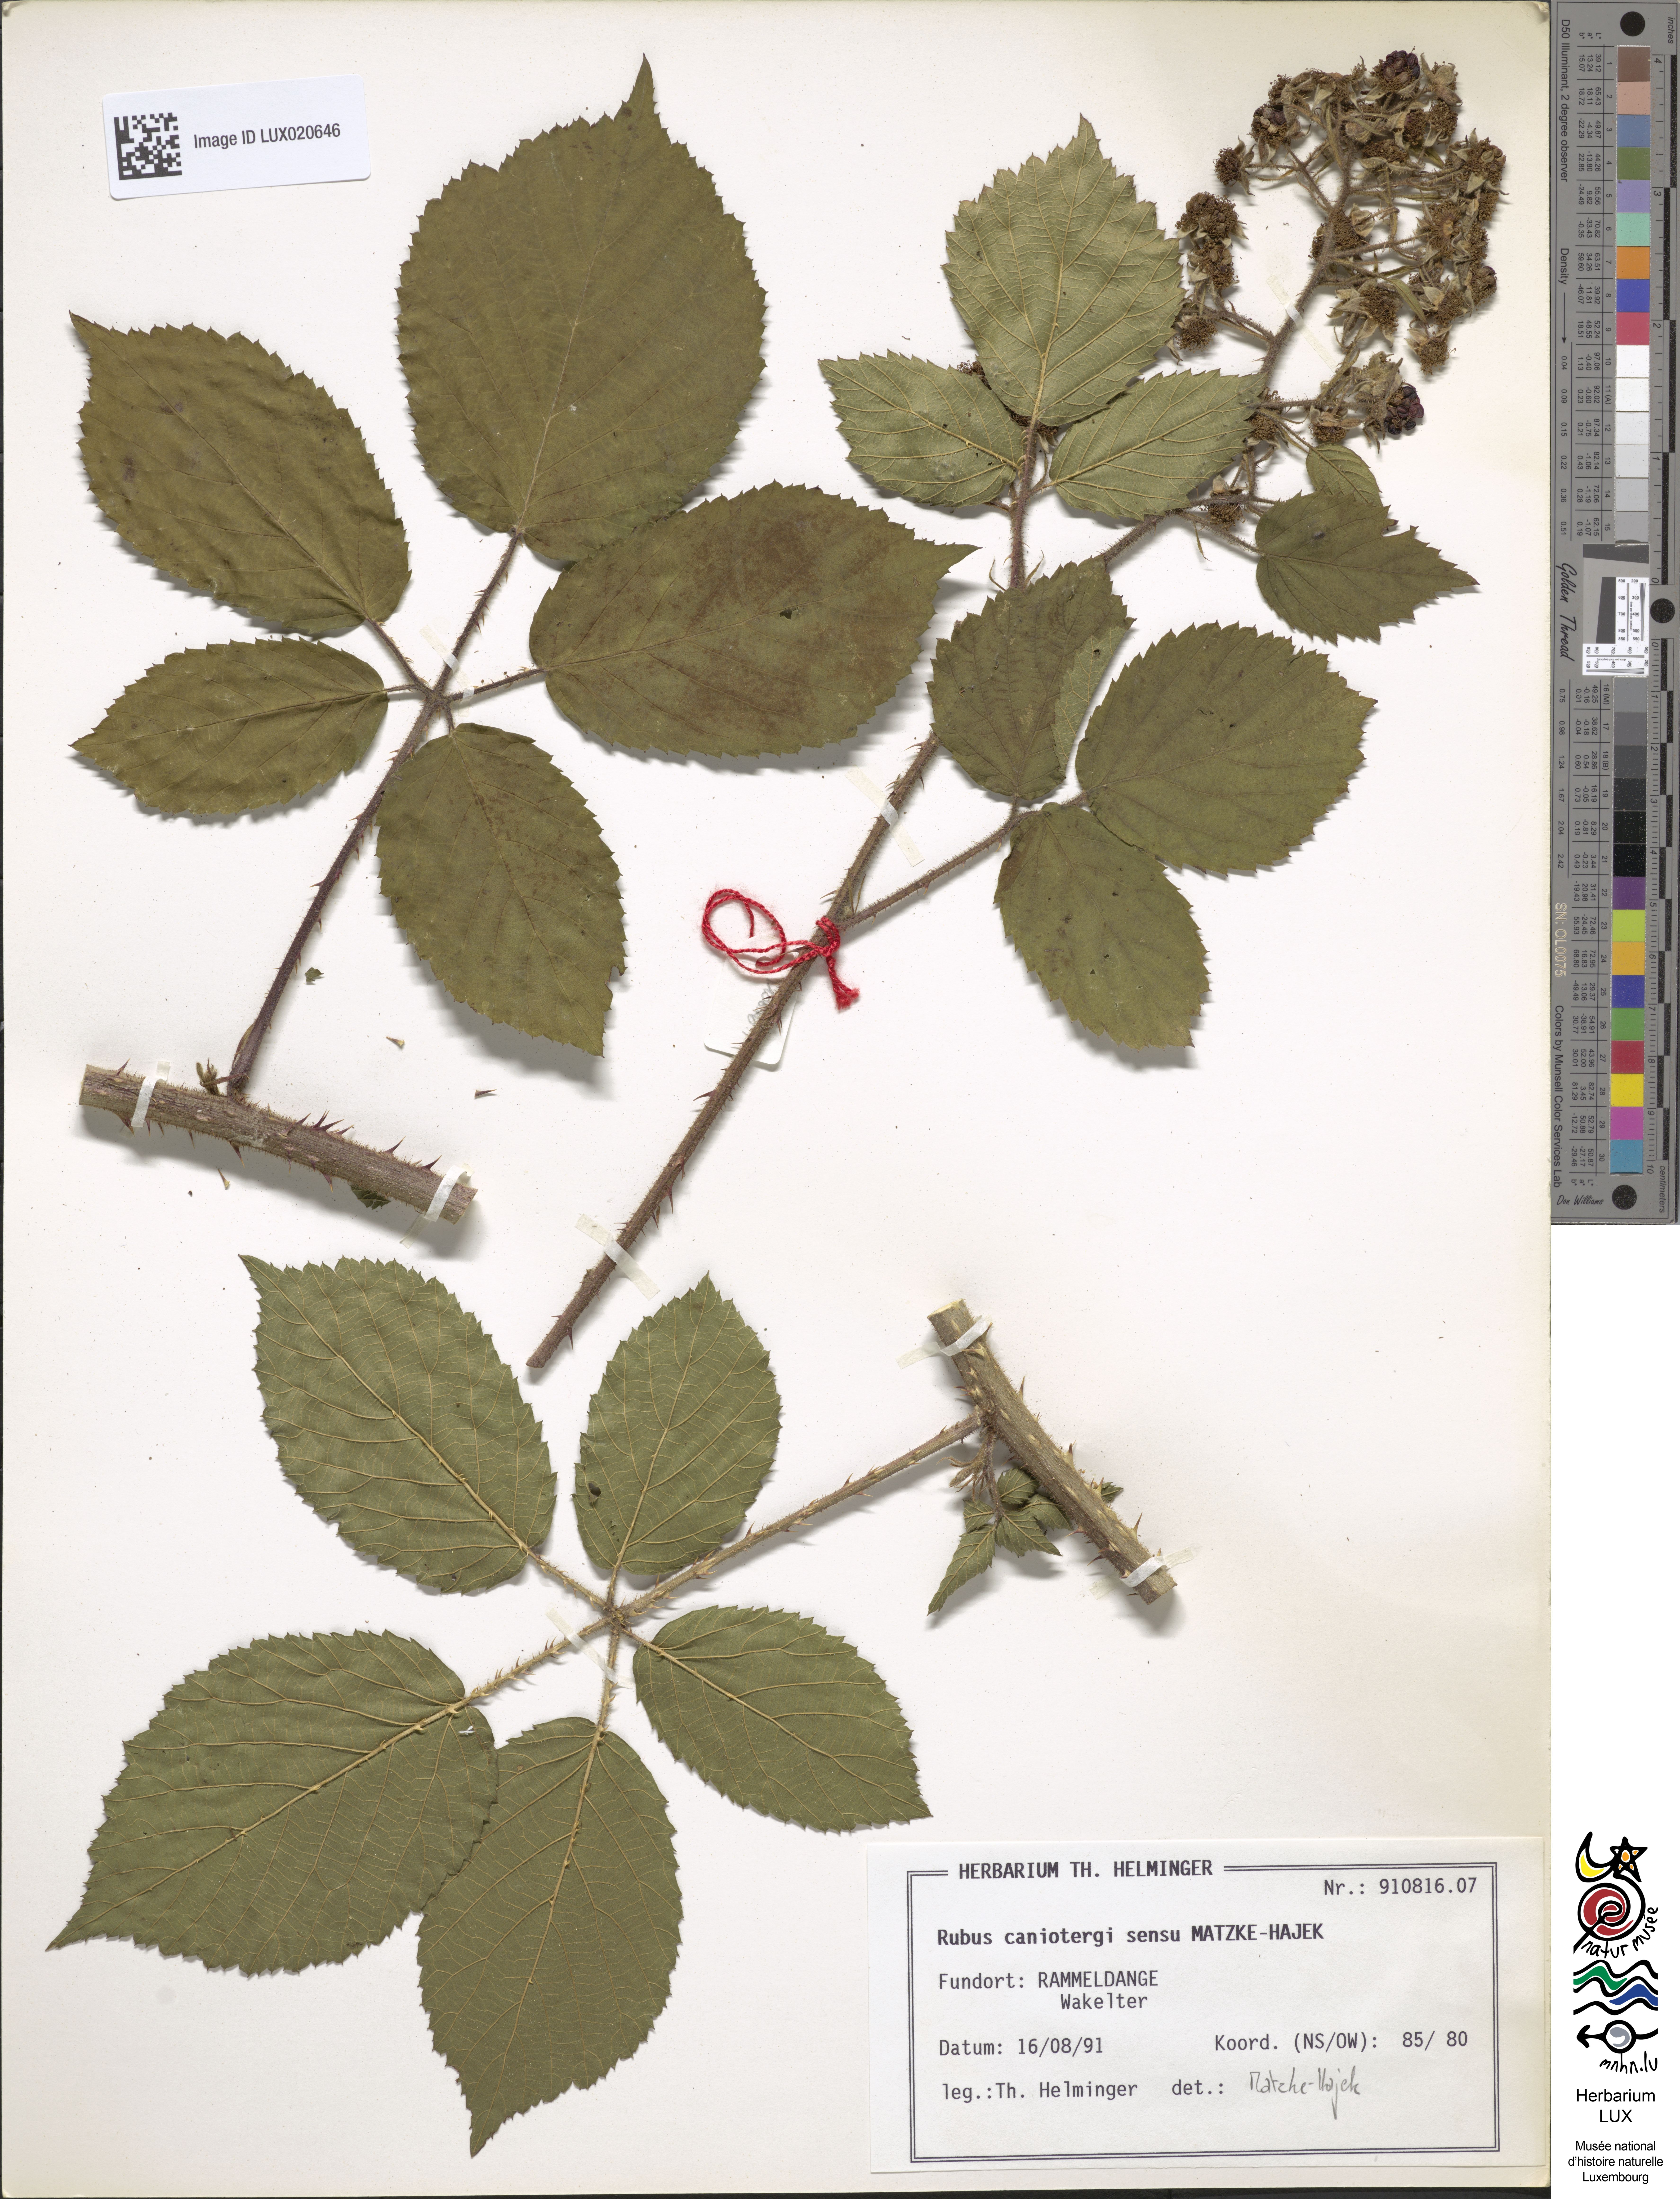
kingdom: Plantae
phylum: Tracheophyta
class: Magnoliopsida
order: Rosales
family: Rosaceae
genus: Rubus
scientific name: Rubus caninitergi
